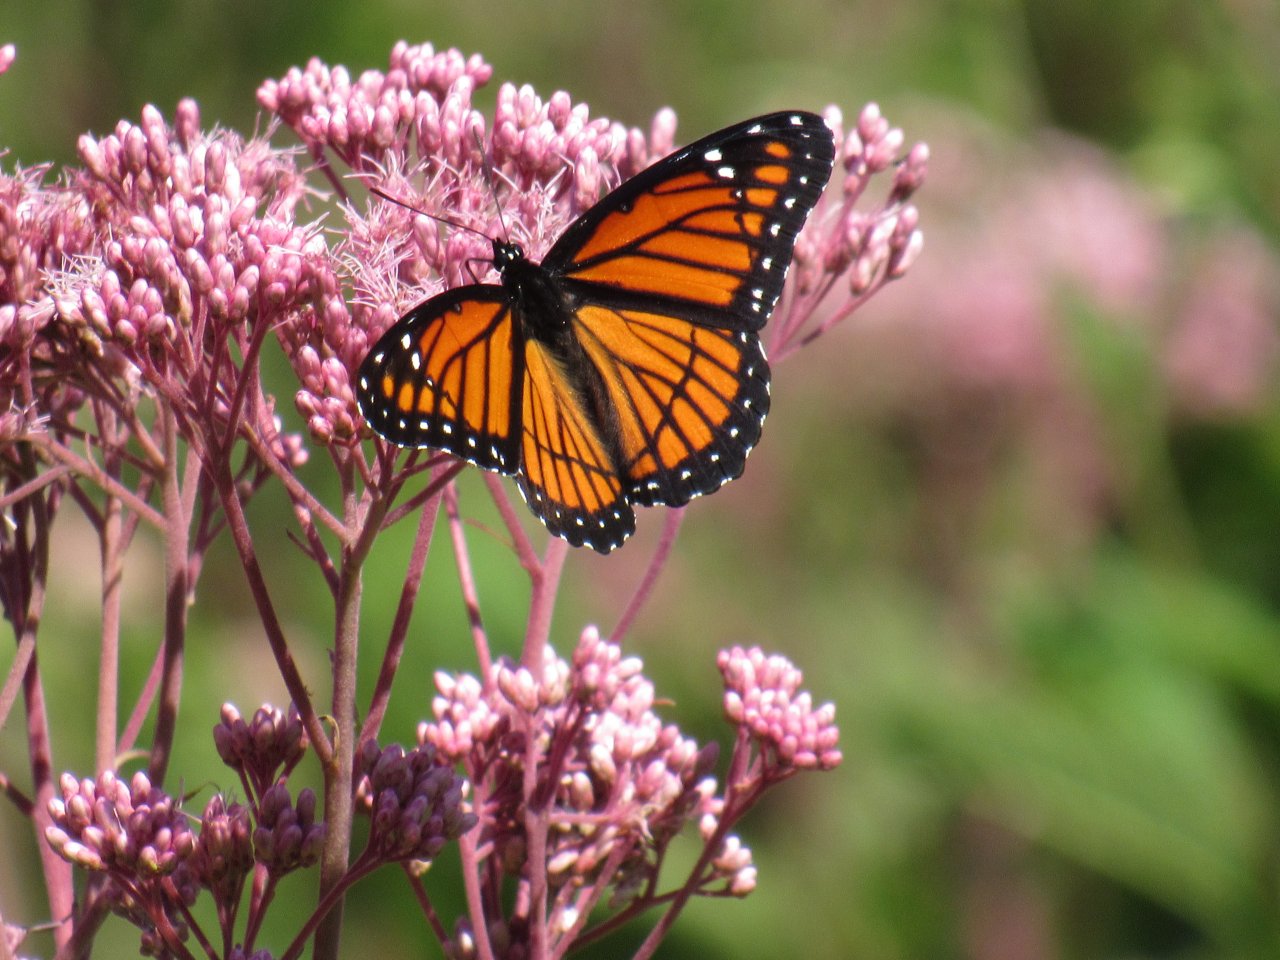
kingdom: Animalia
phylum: Arthropoda
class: Insecta
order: Lepidoptera
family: Nymphalidae
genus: Limenitis
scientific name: Limenitis archippus
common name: Viceroy
